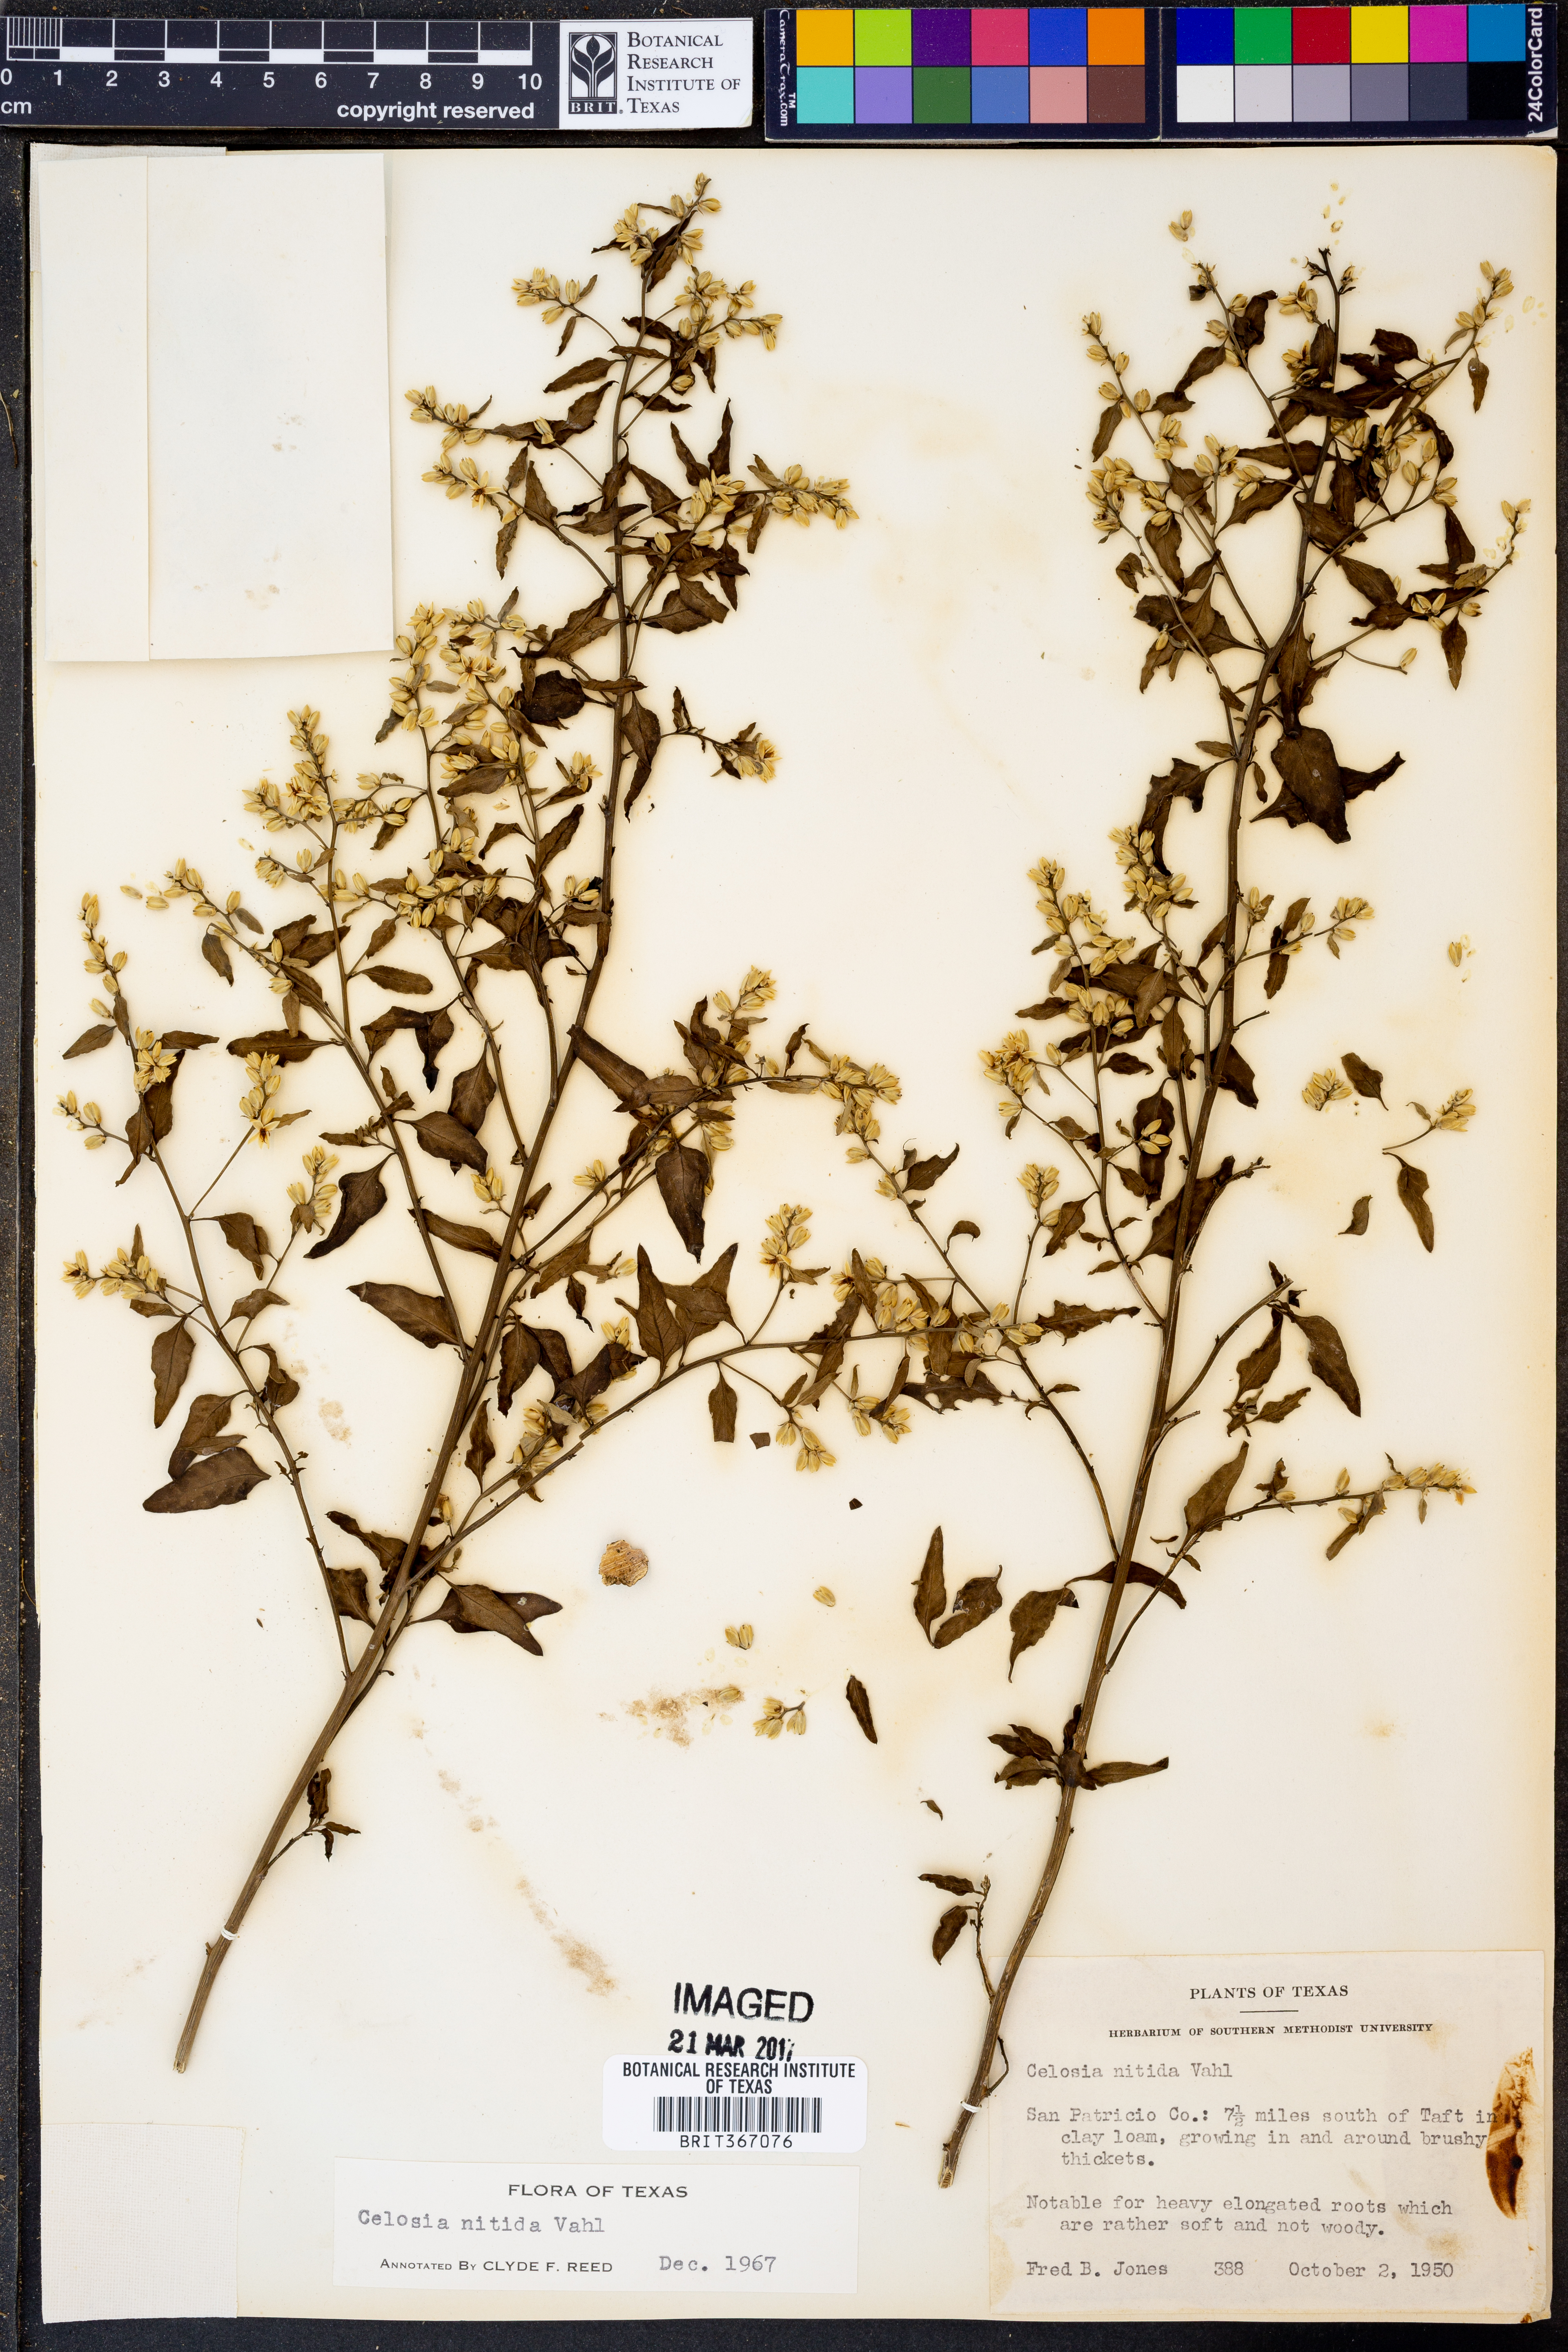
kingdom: Plantae
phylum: Tracheophyta
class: Magnoliopsida
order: Caryophyllales
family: Amaranthaceae
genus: Celosia
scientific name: Celosia nitida
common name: West indian cock's comb
